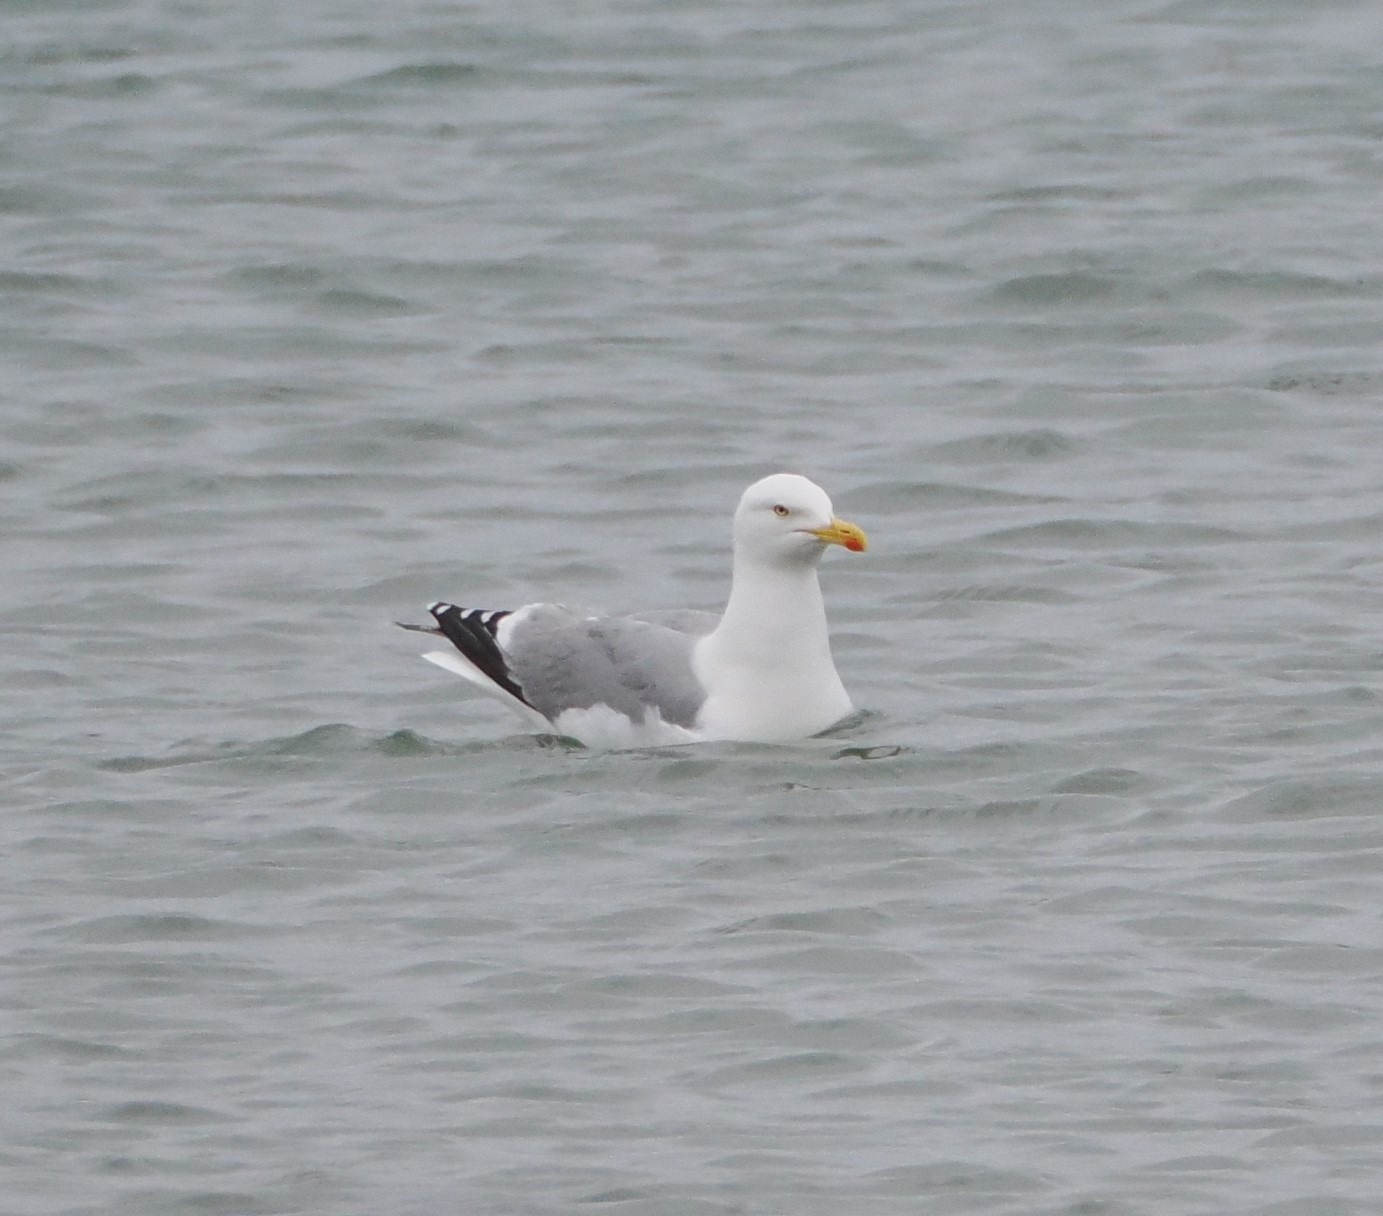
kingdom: Animalia
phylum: Chordata
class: Aves
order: Charadriiformes
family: Laridae
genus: Larus
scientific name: Larus argentatus
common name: Sølvmåge
